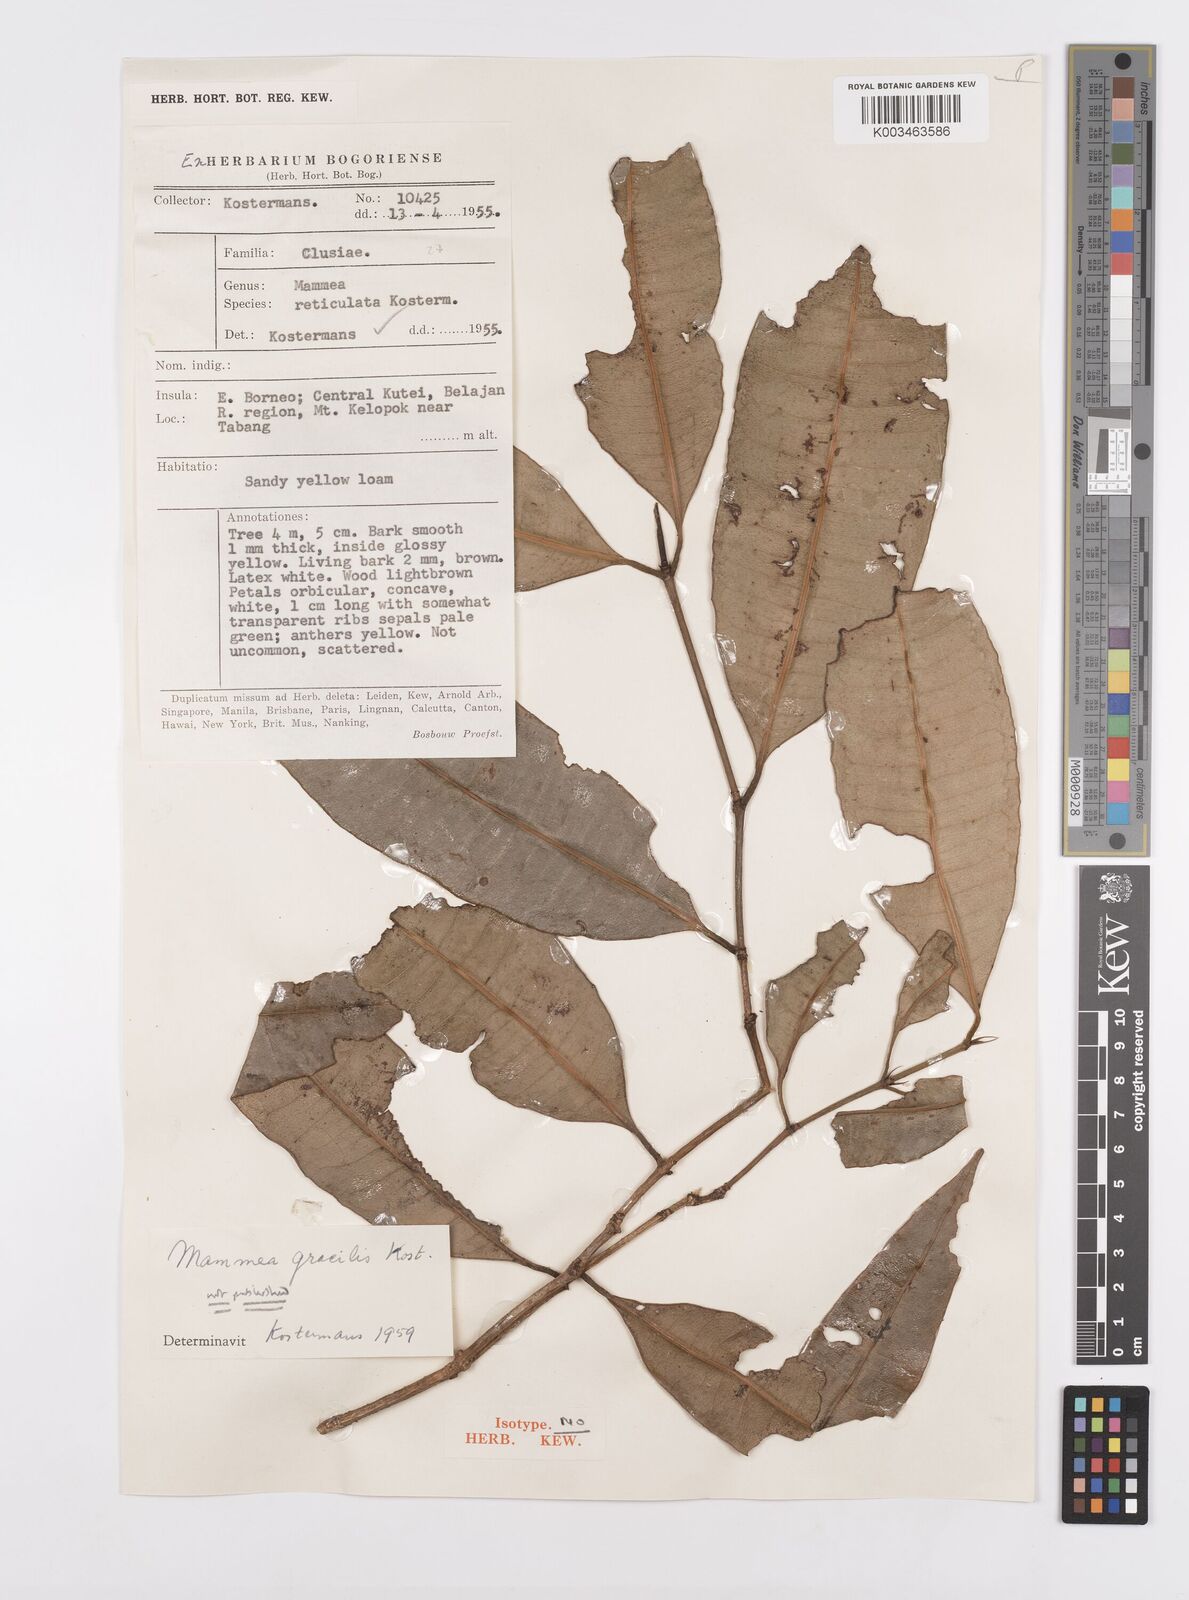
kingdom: Plantae
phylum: Tracheophyta
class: Magnoliopsida
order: Malpighiales
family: Calophyllaceae
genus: Mammea
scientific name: Mammea reticulata
